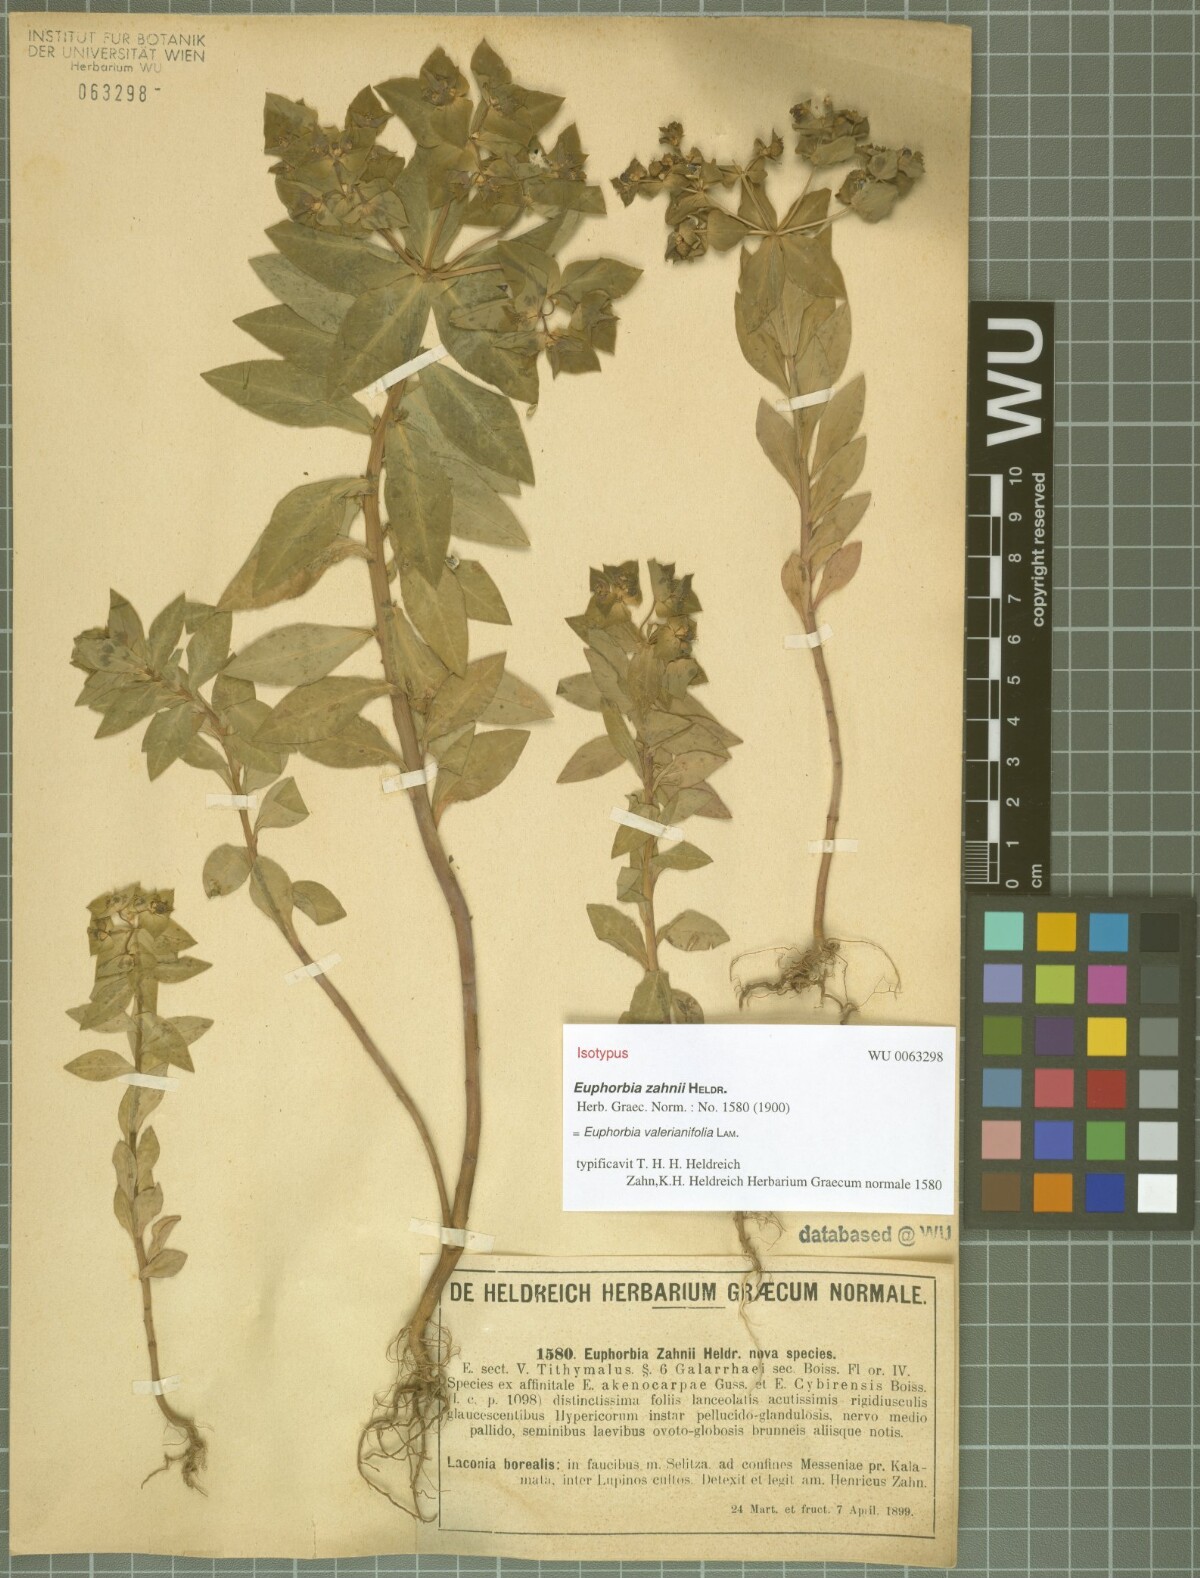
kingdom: Plantae
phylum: Tracheophyta
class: Magnoliopsida
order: Malpighiales
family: Euphorbiaceae
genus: Euphorbia
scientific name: Euphorbia valerianifolia
